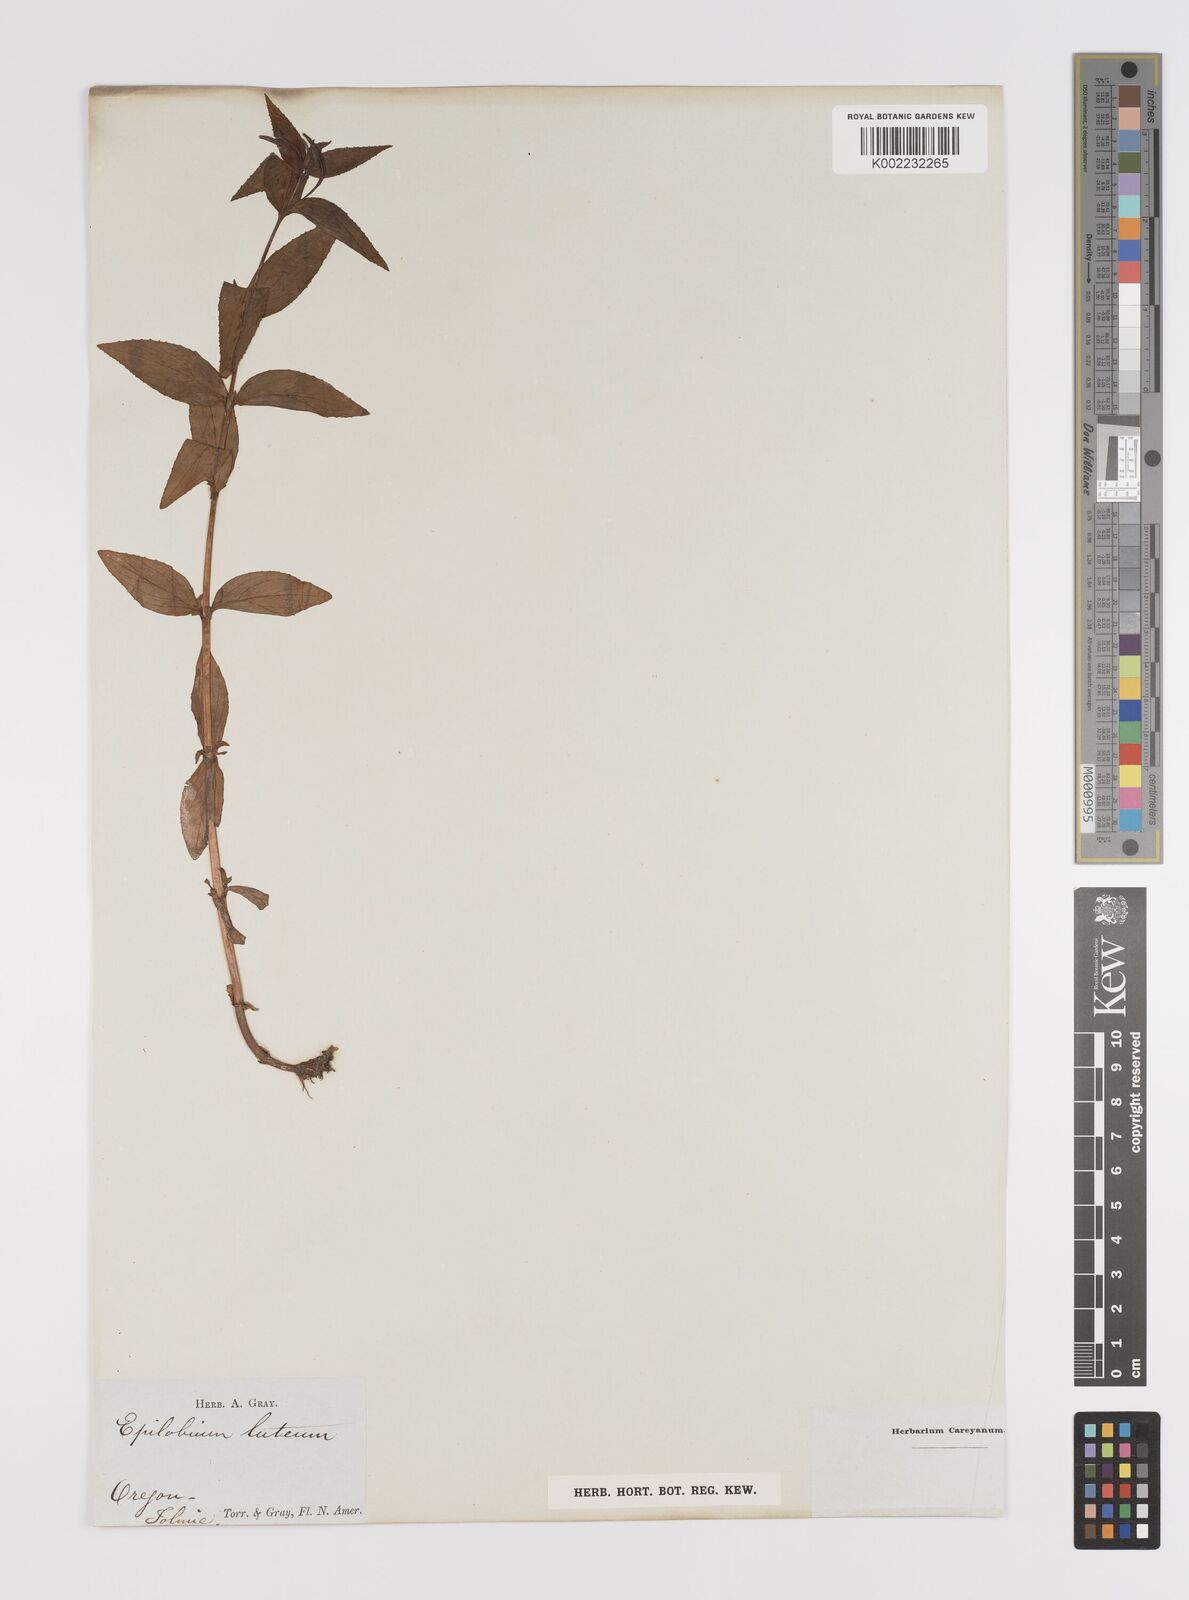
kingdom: Plantae
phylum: Tracheophyta
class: Magnoliopsida
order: Myrtales
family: Onagraceae
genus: Epilobium
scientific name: Epilobium luteum
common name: Yellow willowherb
